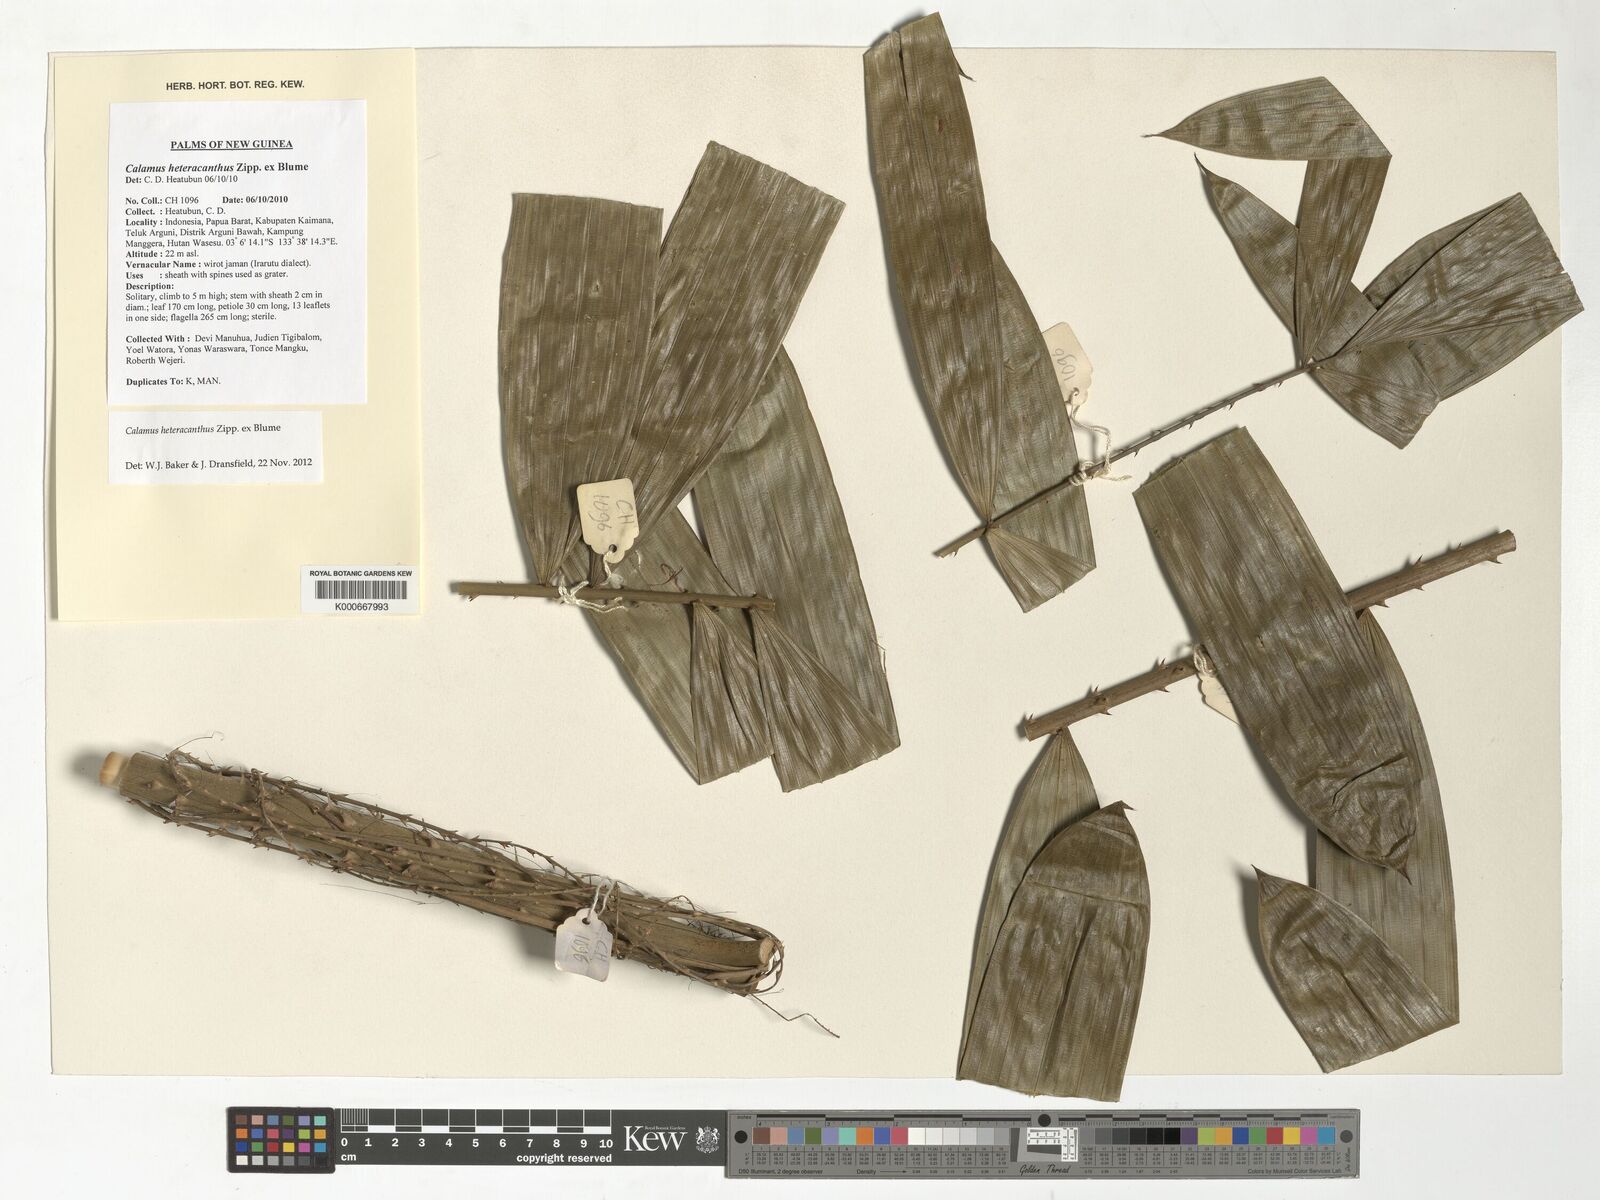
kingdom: Plantae
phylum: Tracheophyta
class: Liliopsida
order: Arecales
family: Arecaceae
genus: Calamus
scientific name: Calamus heteracanthus
